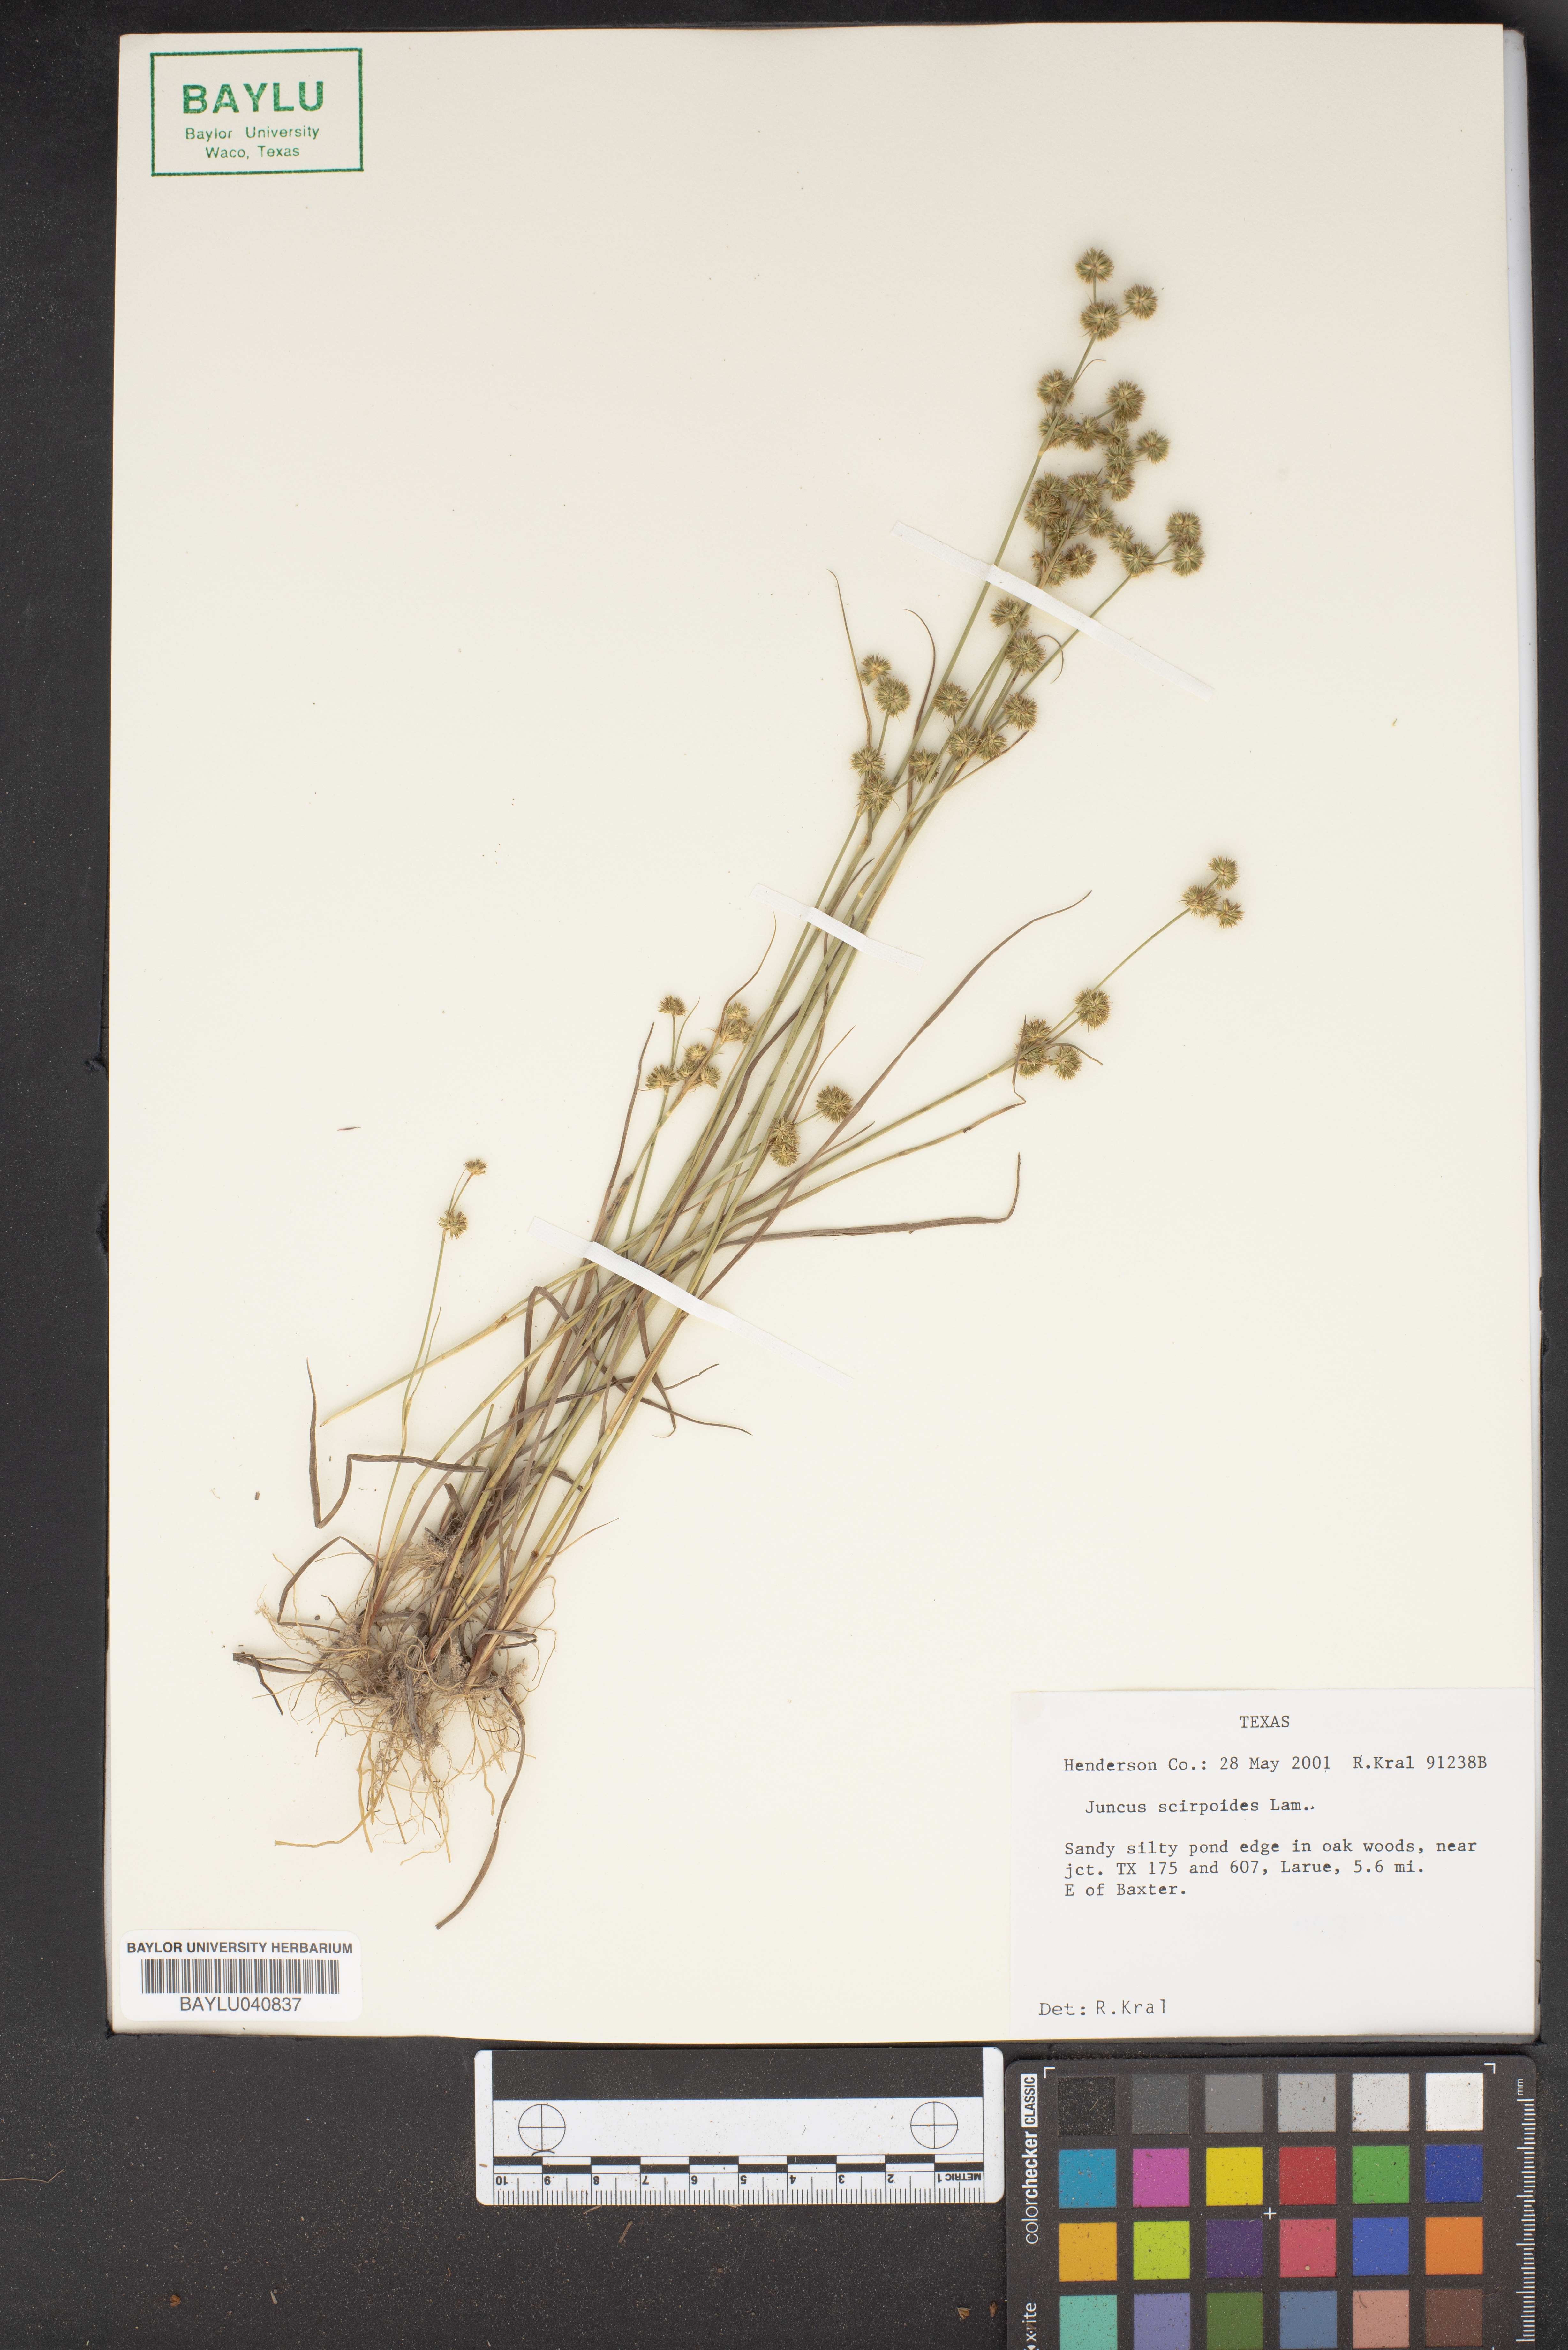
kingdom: Plantae
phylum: Tracheophyta
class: Liliopsida
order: Poales
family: Juncaceae
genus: Juncus
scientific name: Juncus scirpoides
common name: Needlepod rush
